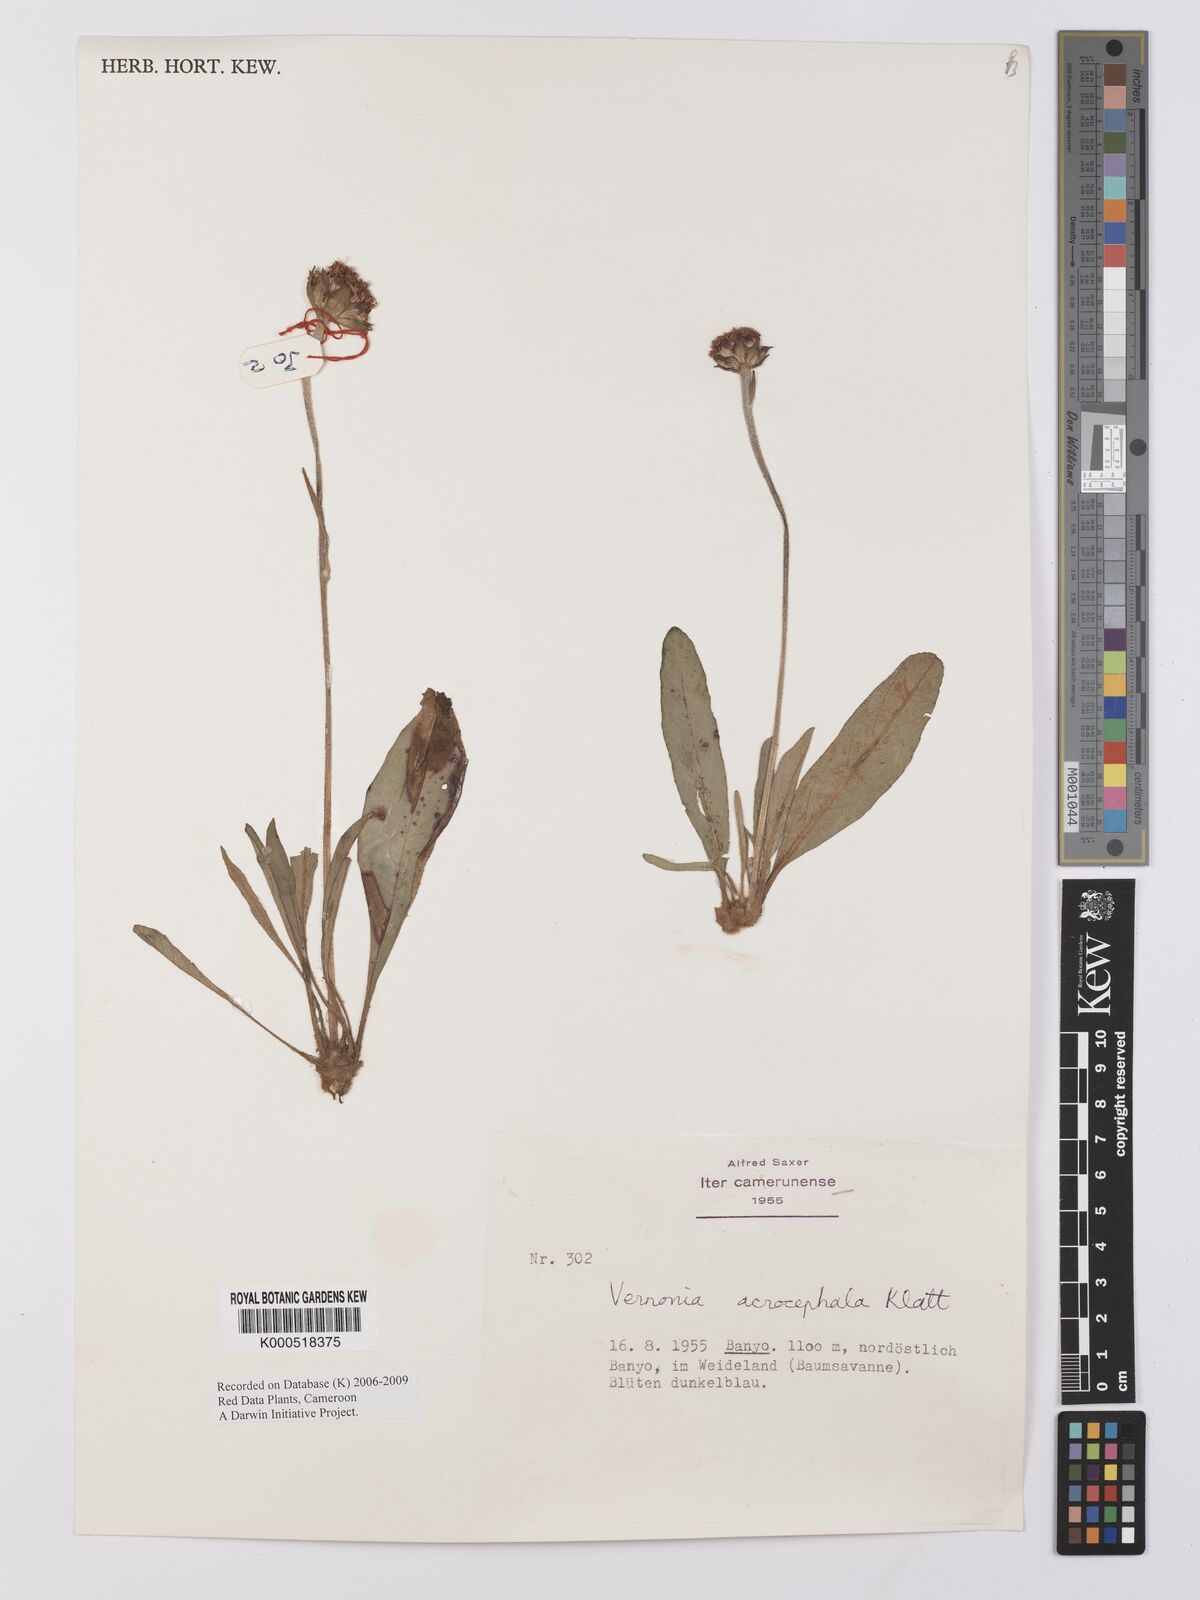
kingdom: Plantae
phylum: Tracheophyta
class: Magnoliopsida
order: Asterales
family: Asteraceae
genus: Vernonella
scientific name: Vernonella acrocephala
